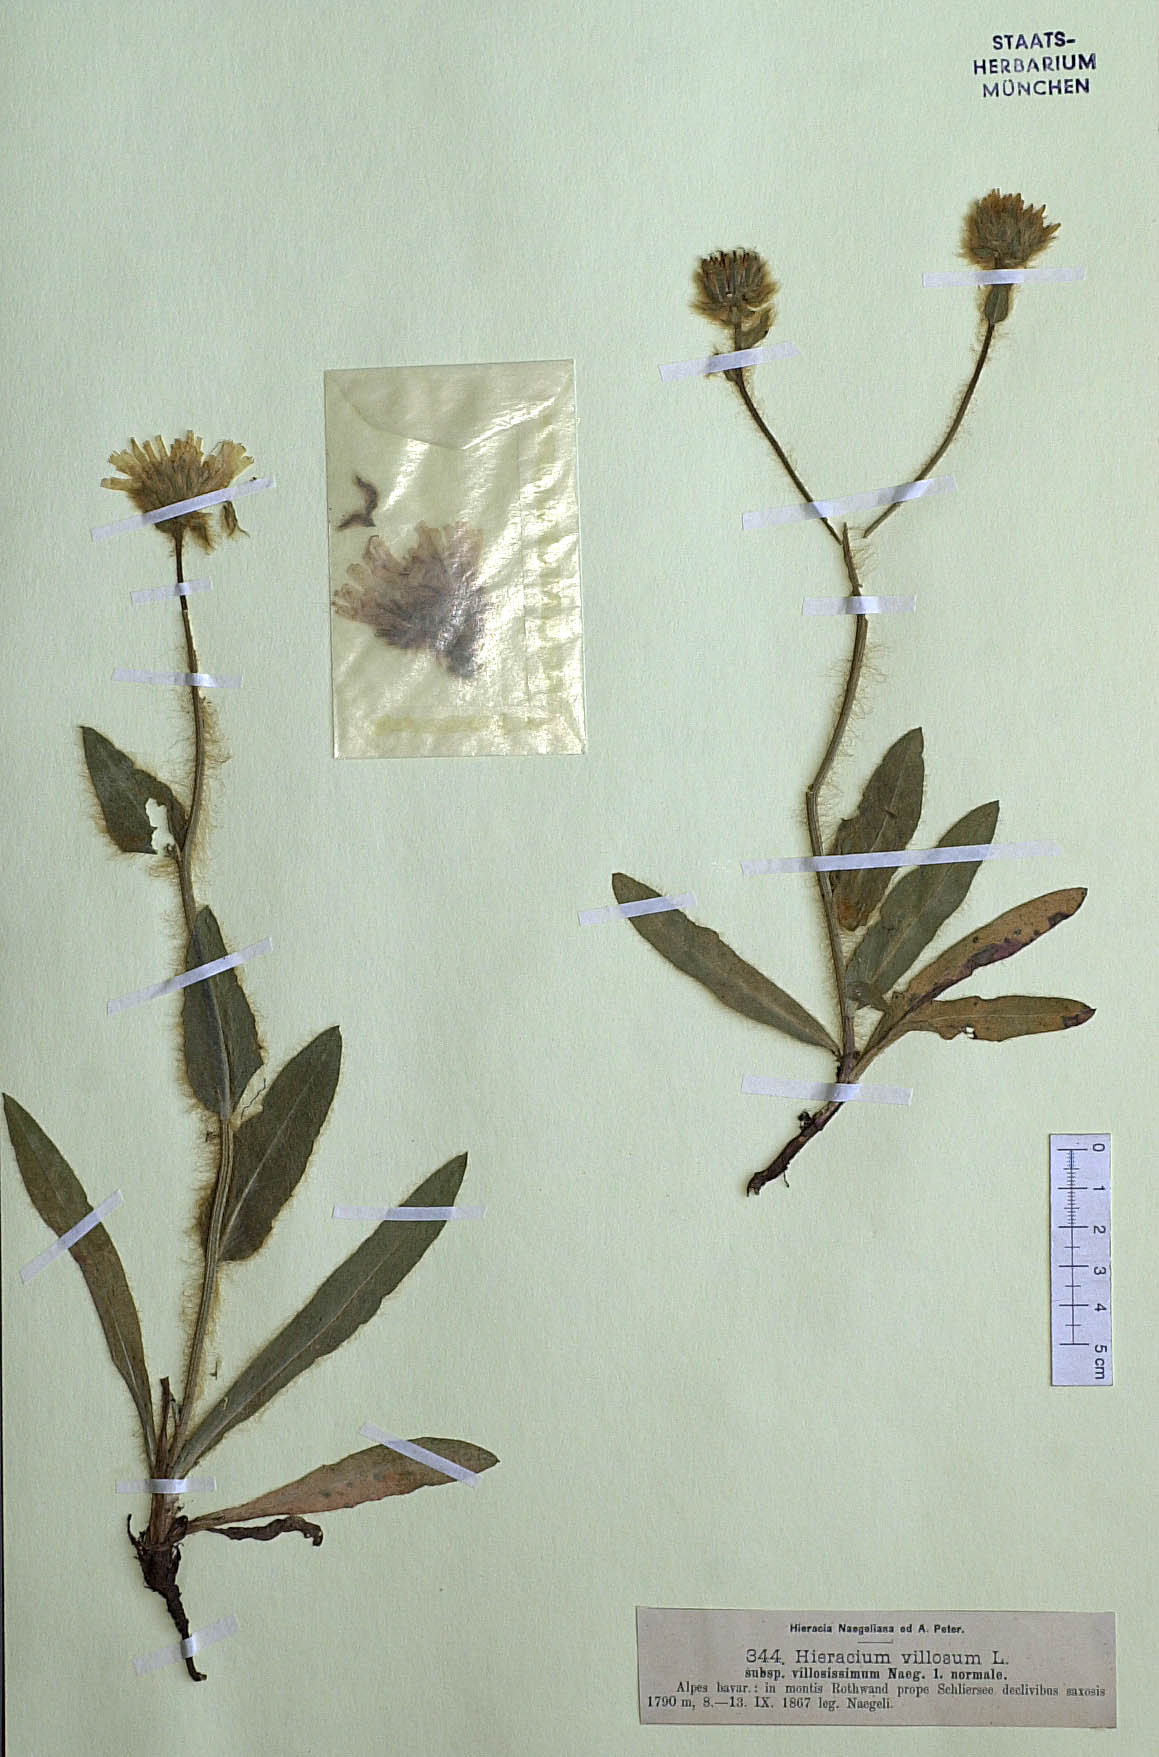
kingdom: Plantae
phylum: Tracheophyta
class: Magnoliopsida
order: Asterales
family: Asteraceae
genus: Hieracium
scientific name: Hieracium villosum
